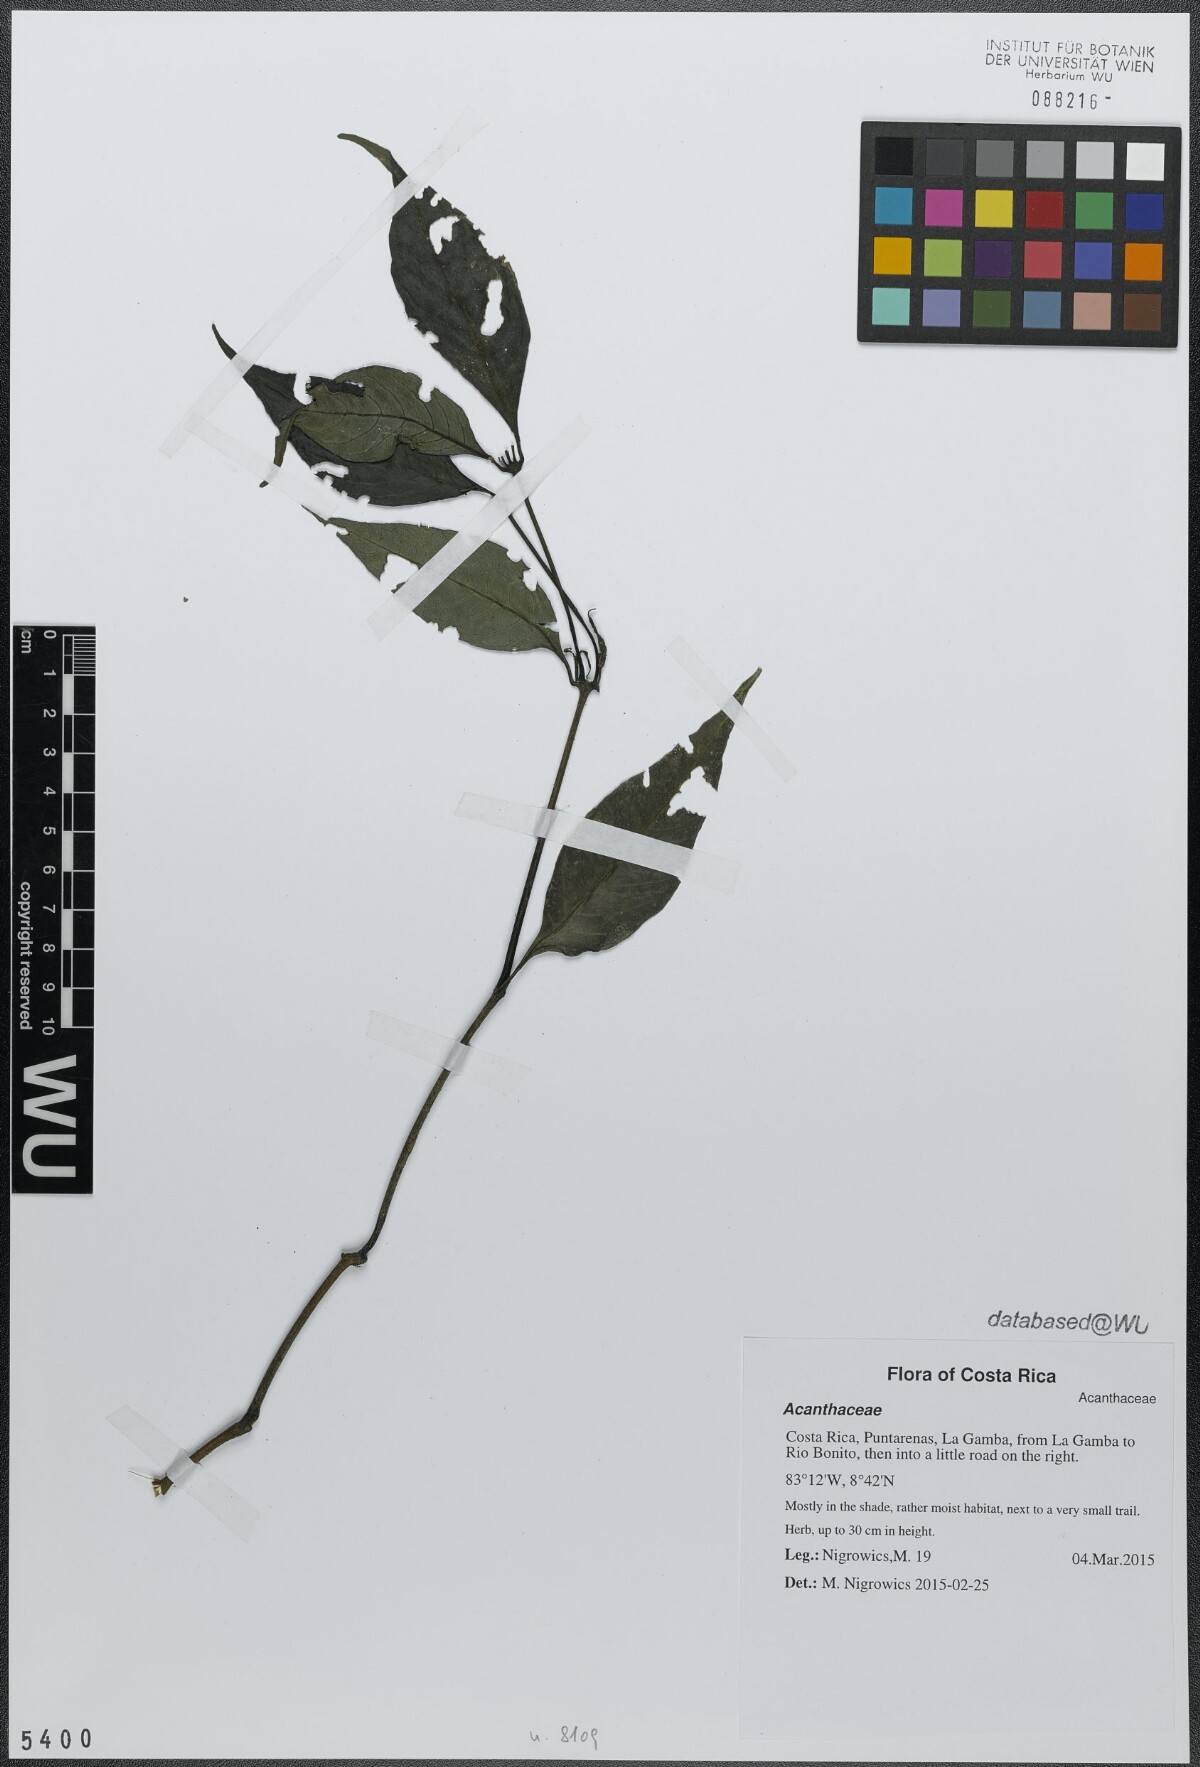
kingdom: Plantae
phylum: Tracheophyta
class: Magnoliopsida
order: Lamiales
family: Acanthaceae
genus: Ruellia
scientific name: Ruellia
